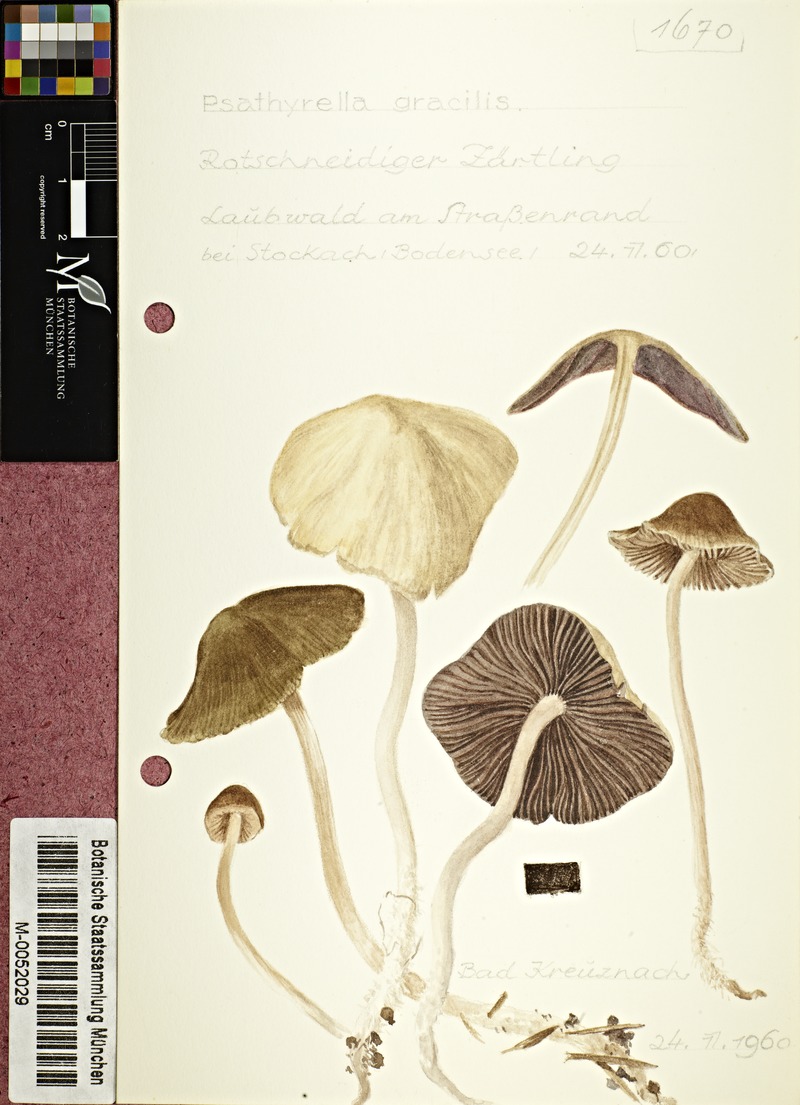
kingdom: Fungi
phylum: Basidiomycota
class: Agaricomycetes
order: Agaricales
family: Psathyrellaceae
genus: Psathyrella
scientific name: Psathyrella corrugis
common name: Red edge brittlestem
